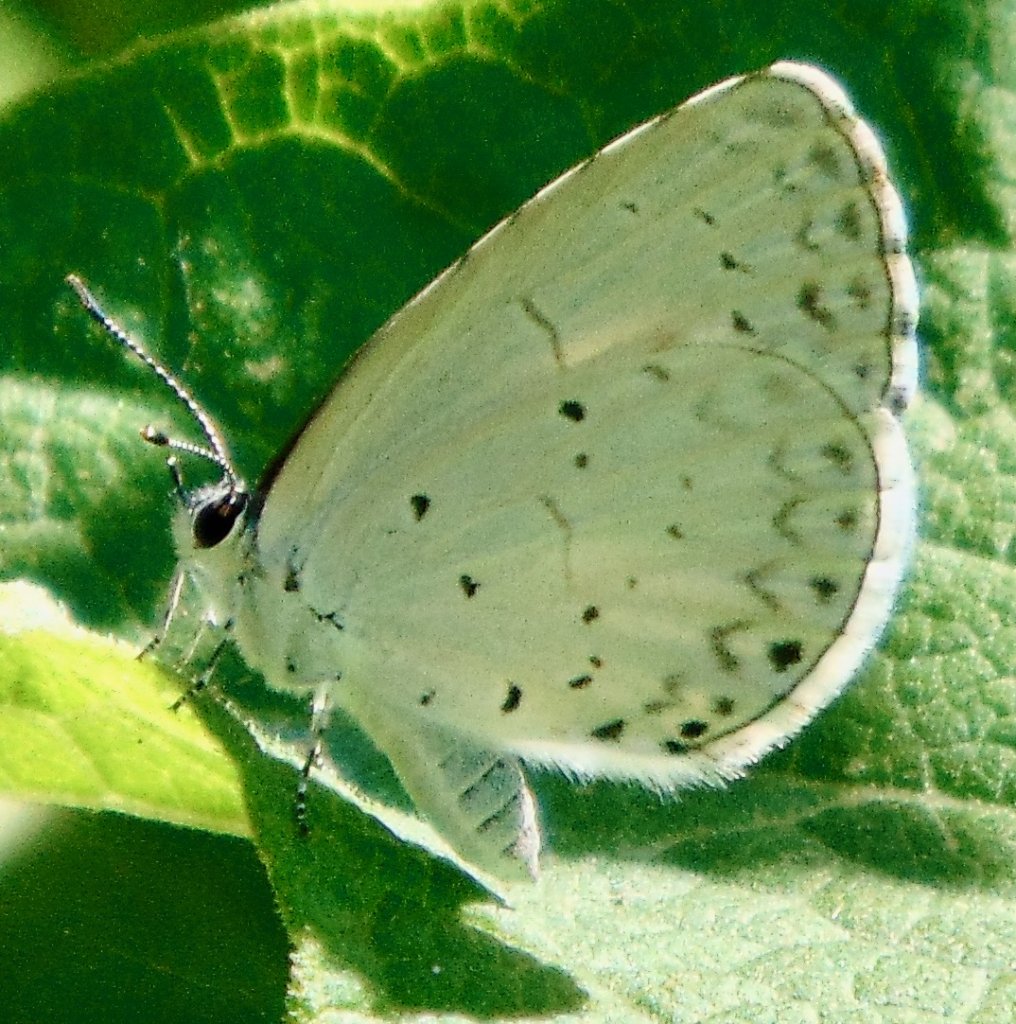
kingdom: Animalia
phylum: Arthropoda
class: Insecta
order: Lepidoptera
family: Lycaenidae
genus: Cyaniris
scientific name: Cyaniris neglecta
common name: Summer Azure
